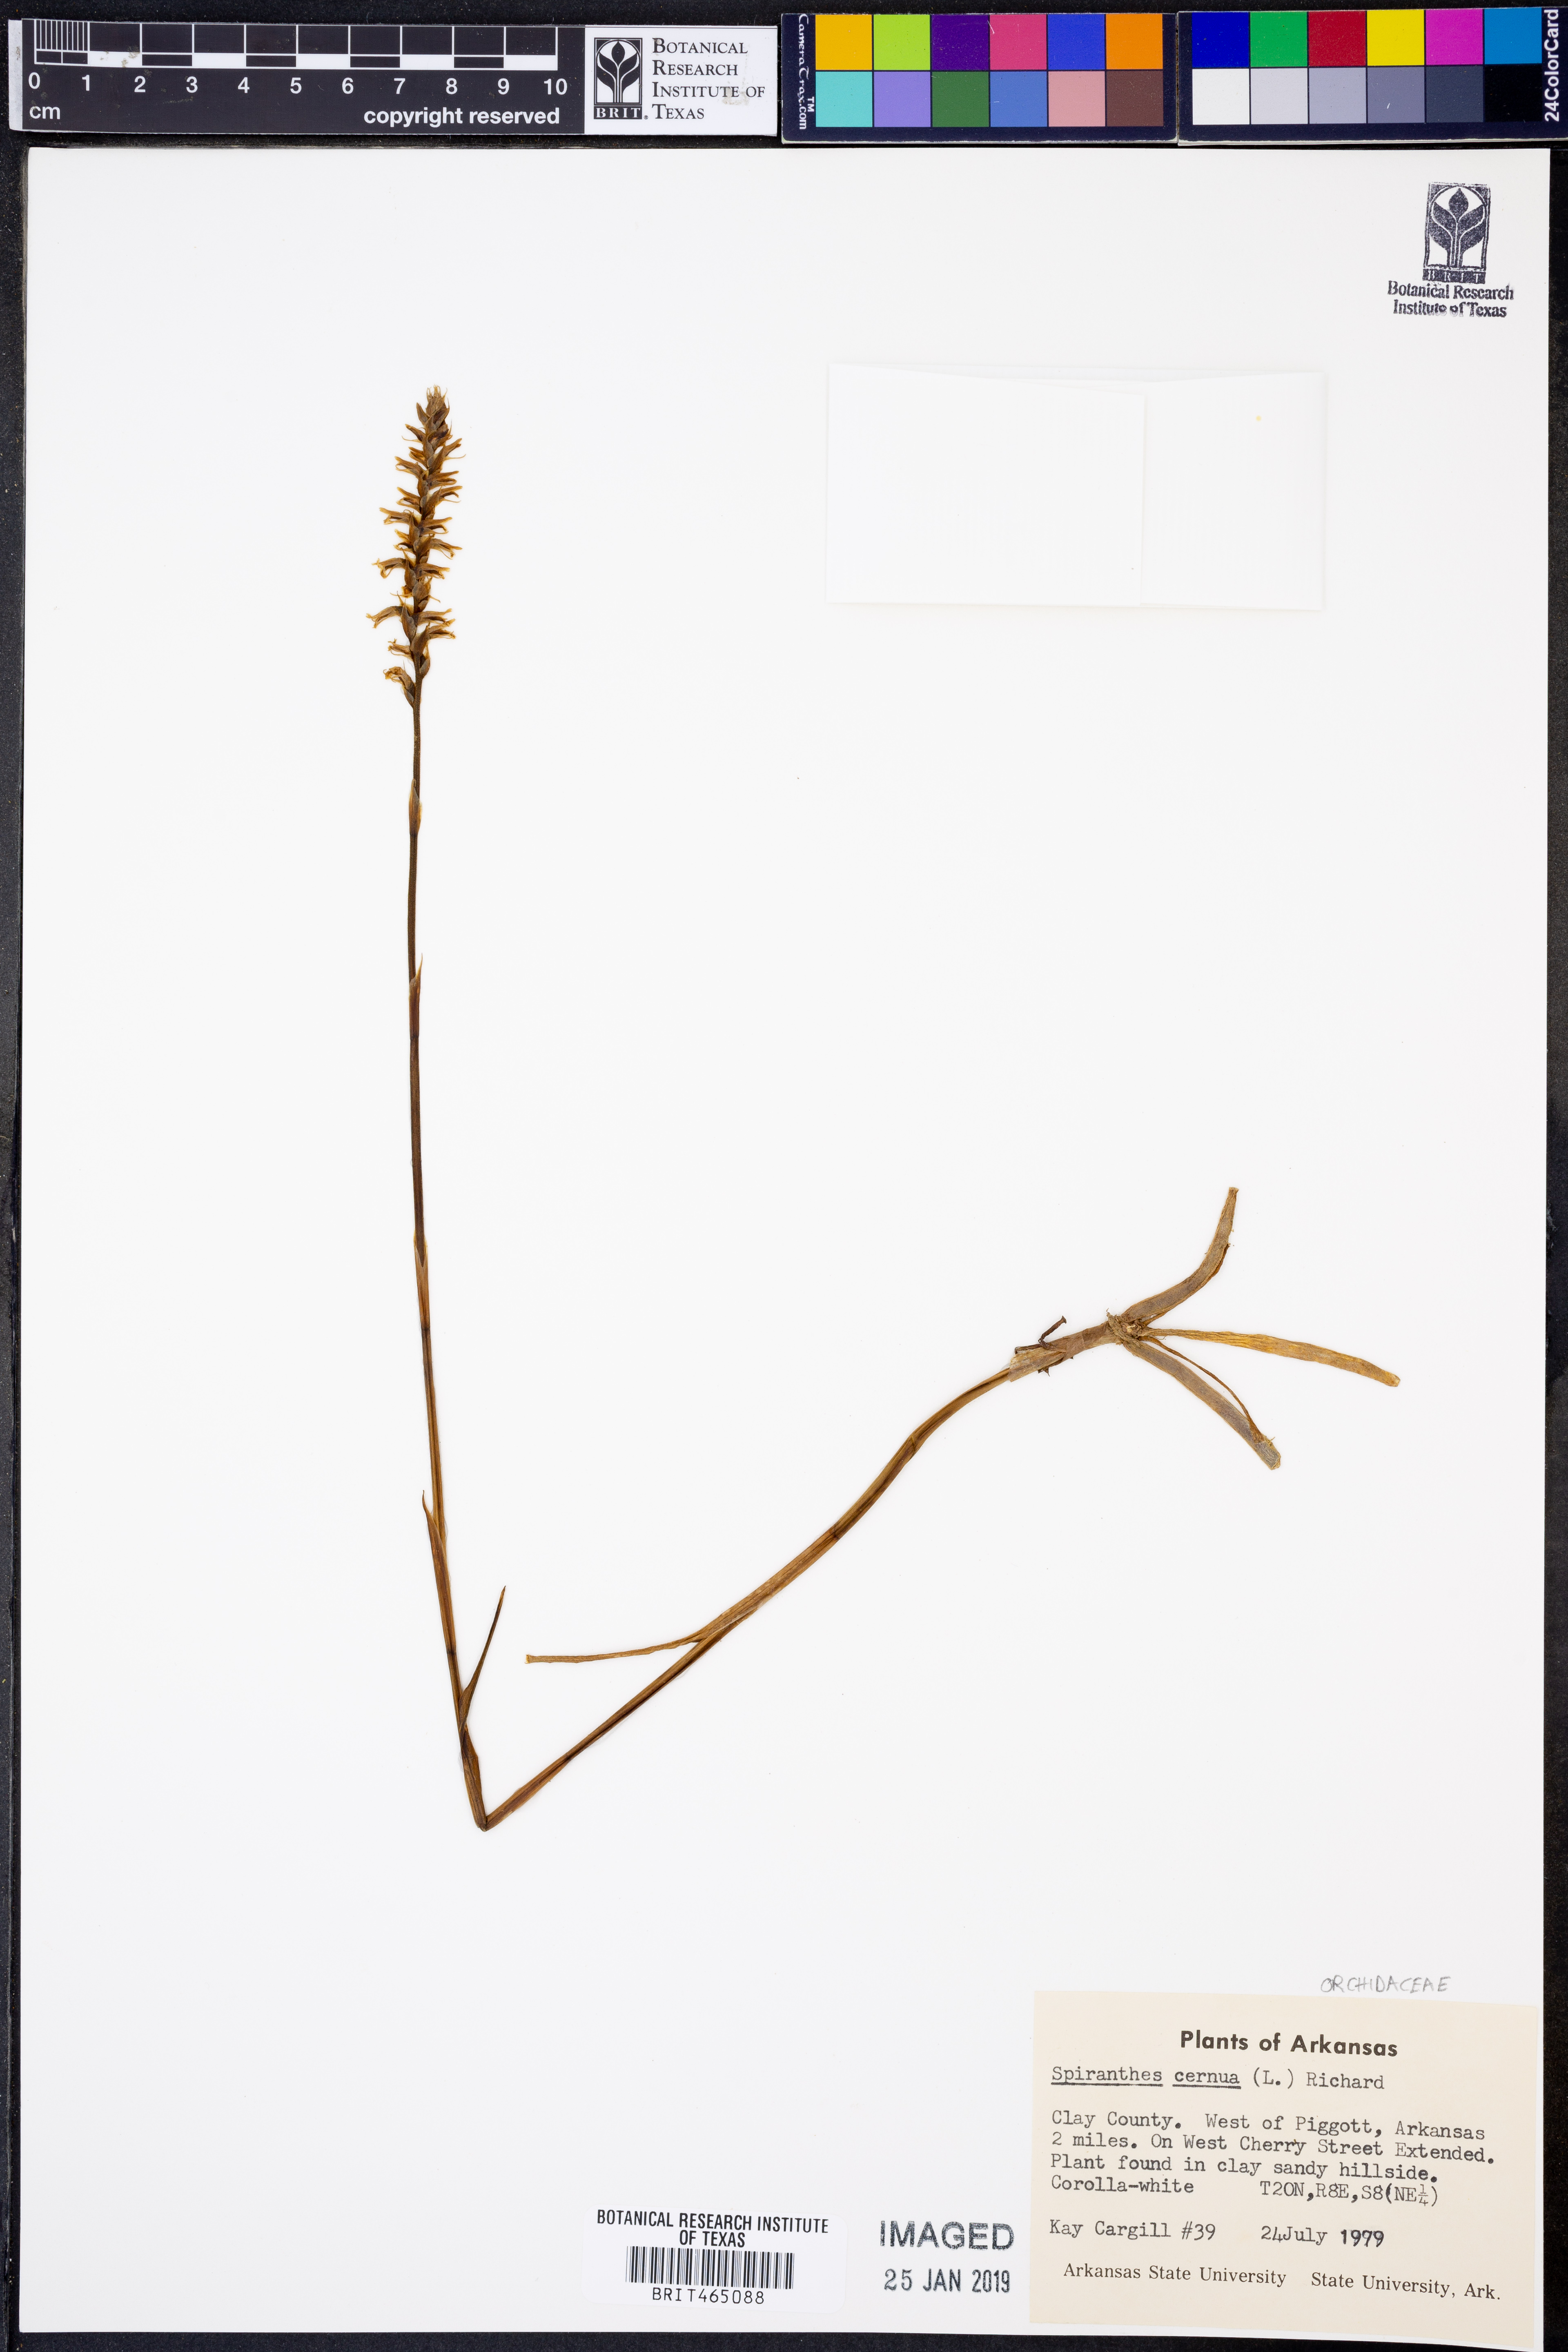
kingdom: Plantae
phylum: Tracheophyta
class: Liliopsida
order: Asparagales
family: Orchidaceae
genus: Spiranthes
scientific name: Spiranthes cernua
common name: Dropping ladies'-tresses
